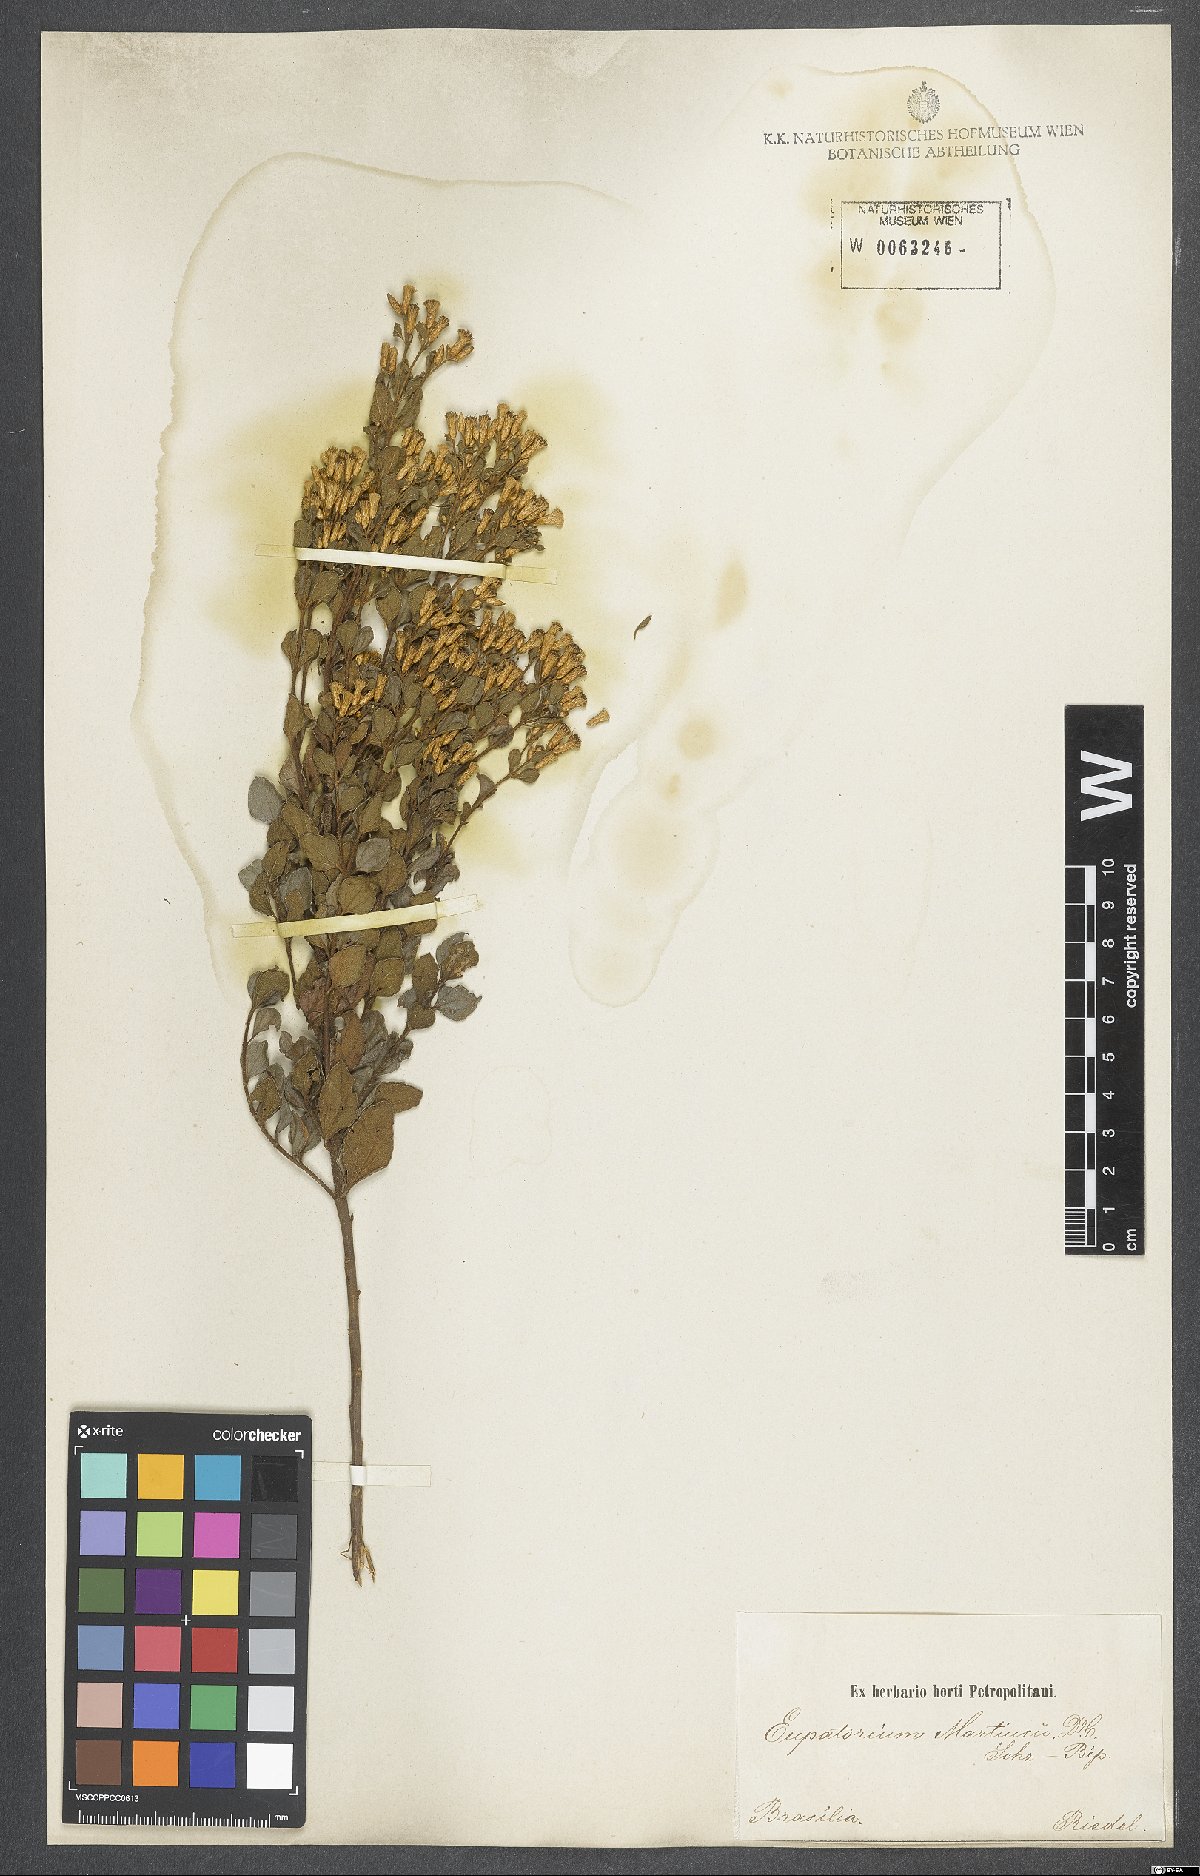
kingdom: Plantae
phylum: Tracheophyta
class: Magnoliopsida
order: Asterales
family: Asteraceae
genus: Chromolaena
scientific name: Chromolaena squalida
